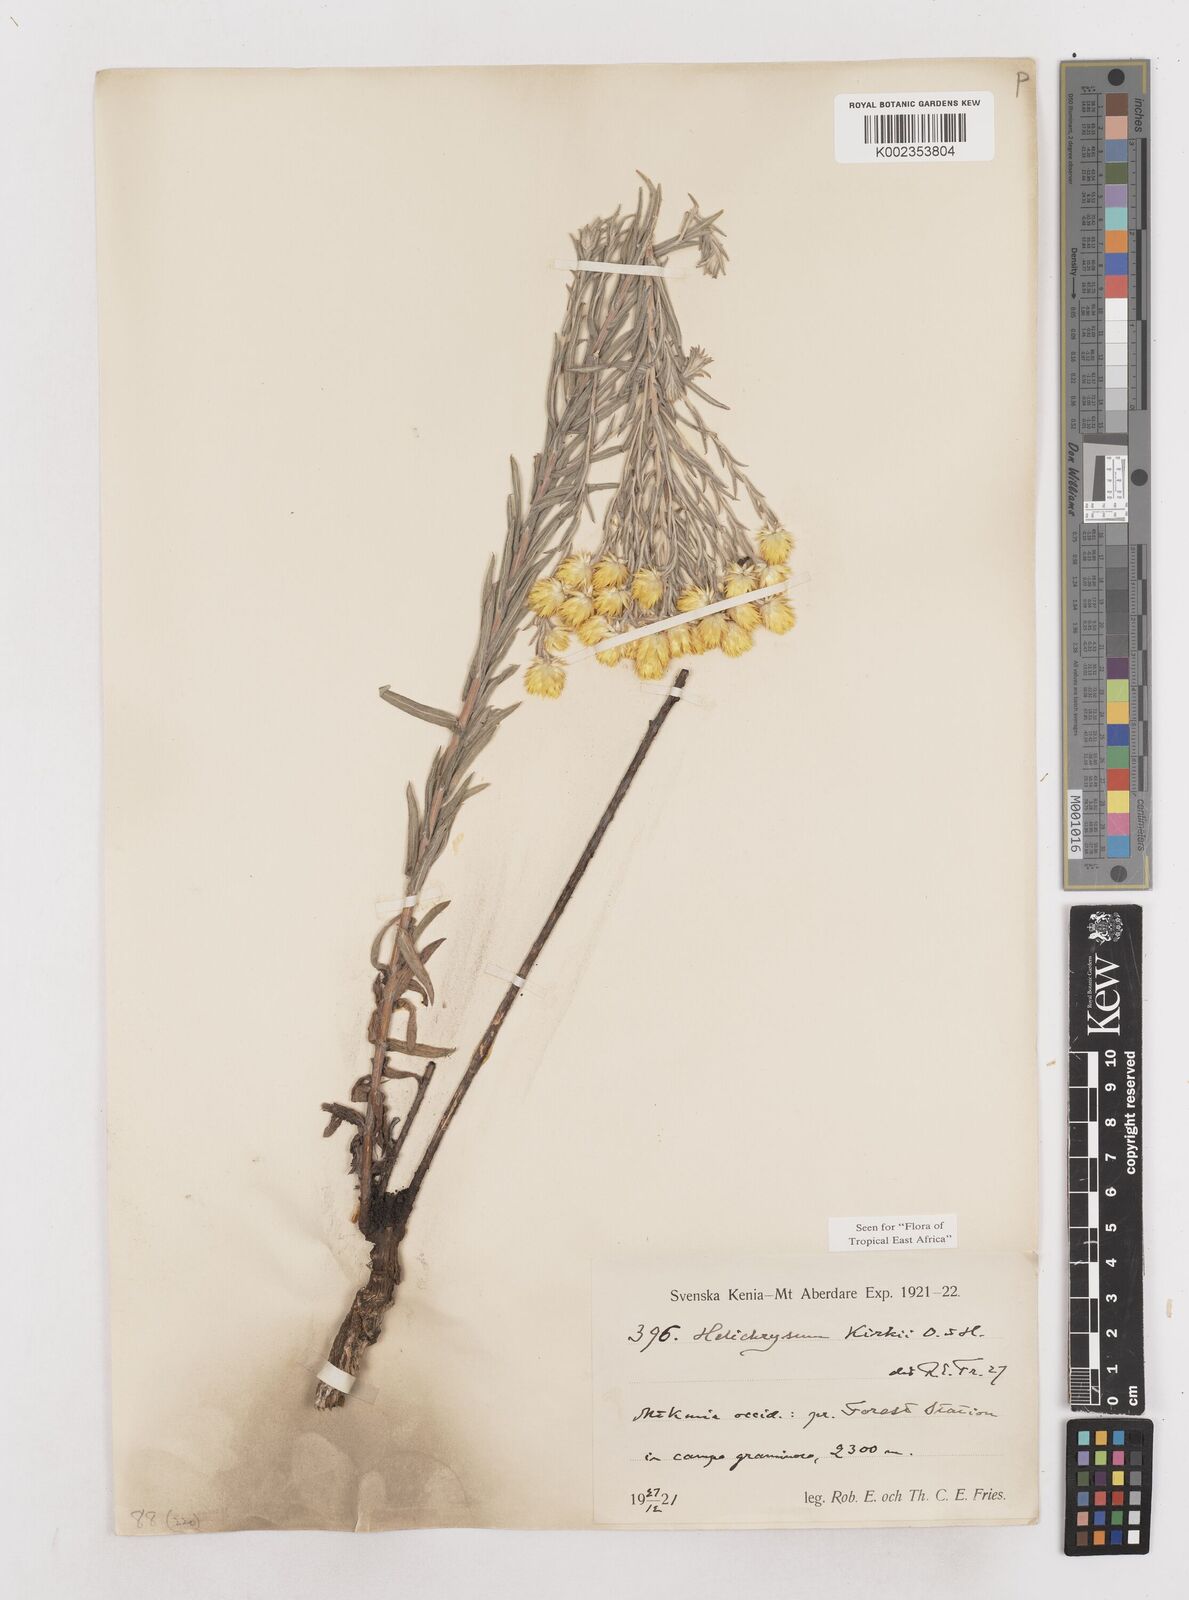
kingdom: Plantae
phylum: Tracheophyta
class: Magnoliopsida
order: Asterales
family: Asteraceae
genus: Helichrysum
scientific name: Helichrysum kirkii
